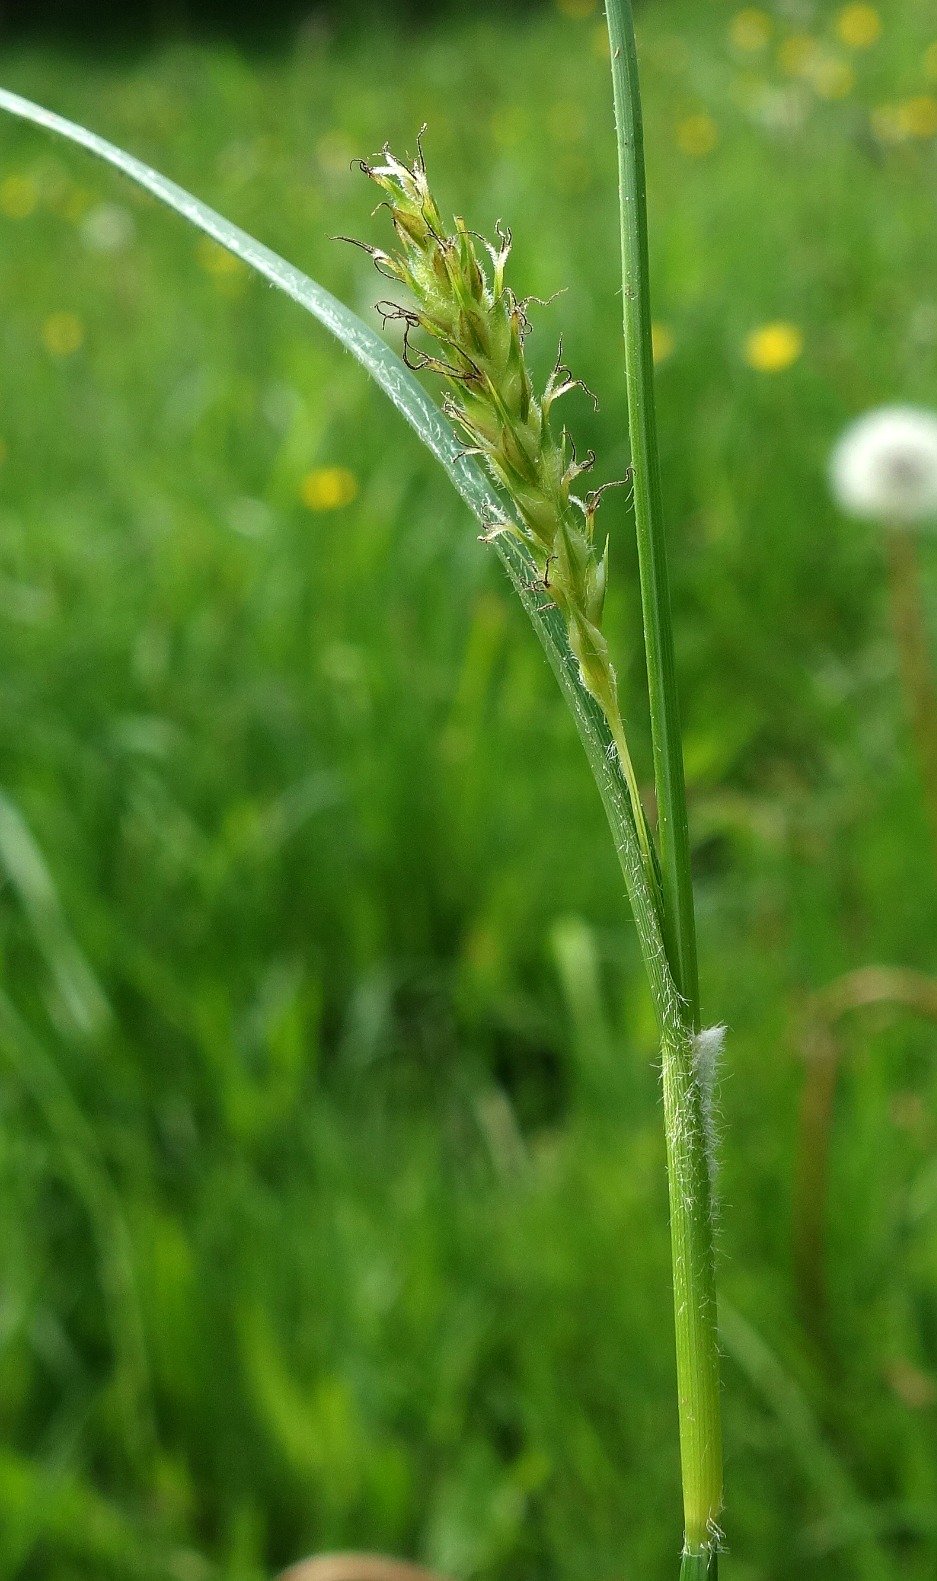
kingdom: Plantae
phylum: Tracheophyta
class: Liliopsida
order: Poales
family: Cyperaceae
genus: Carex
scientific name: Carex hirta
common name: Håret star
